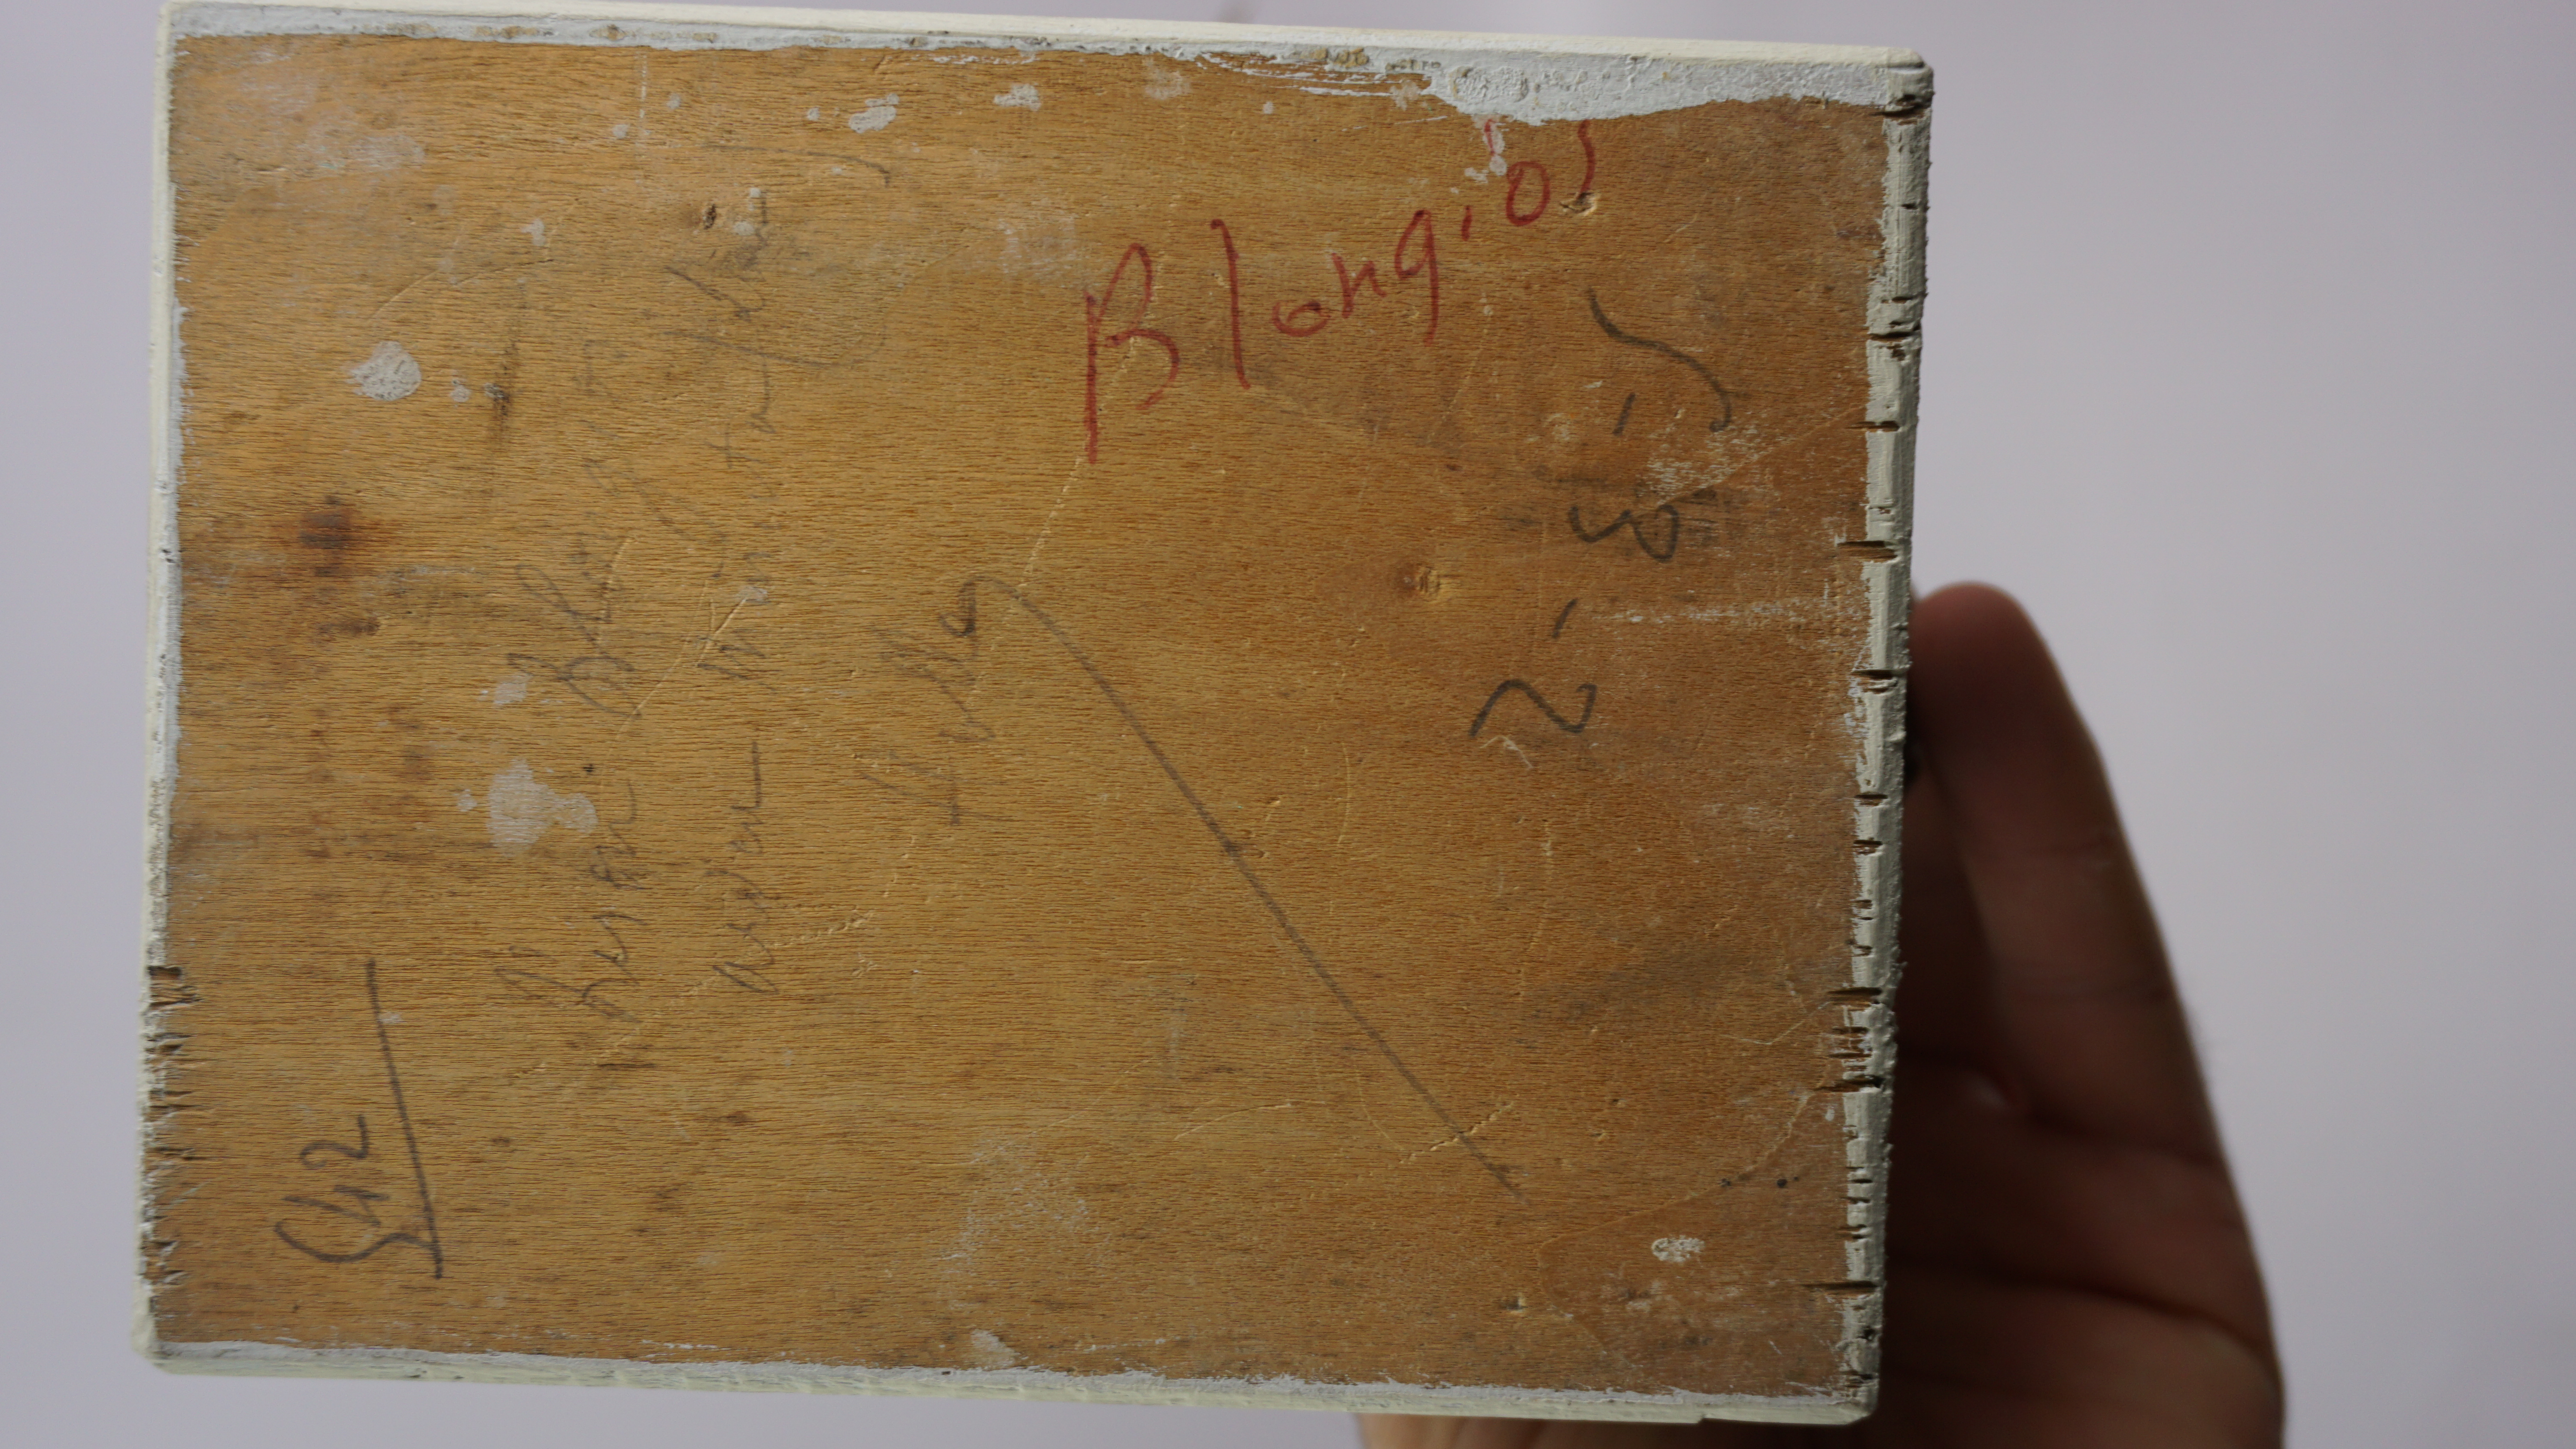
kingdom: Animalia
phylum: Chordata
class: Aves
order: Pelecaniformes
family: Ardeidae
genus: Ixobrychus
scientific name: Ixobrychus minutus
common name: Little bittern
